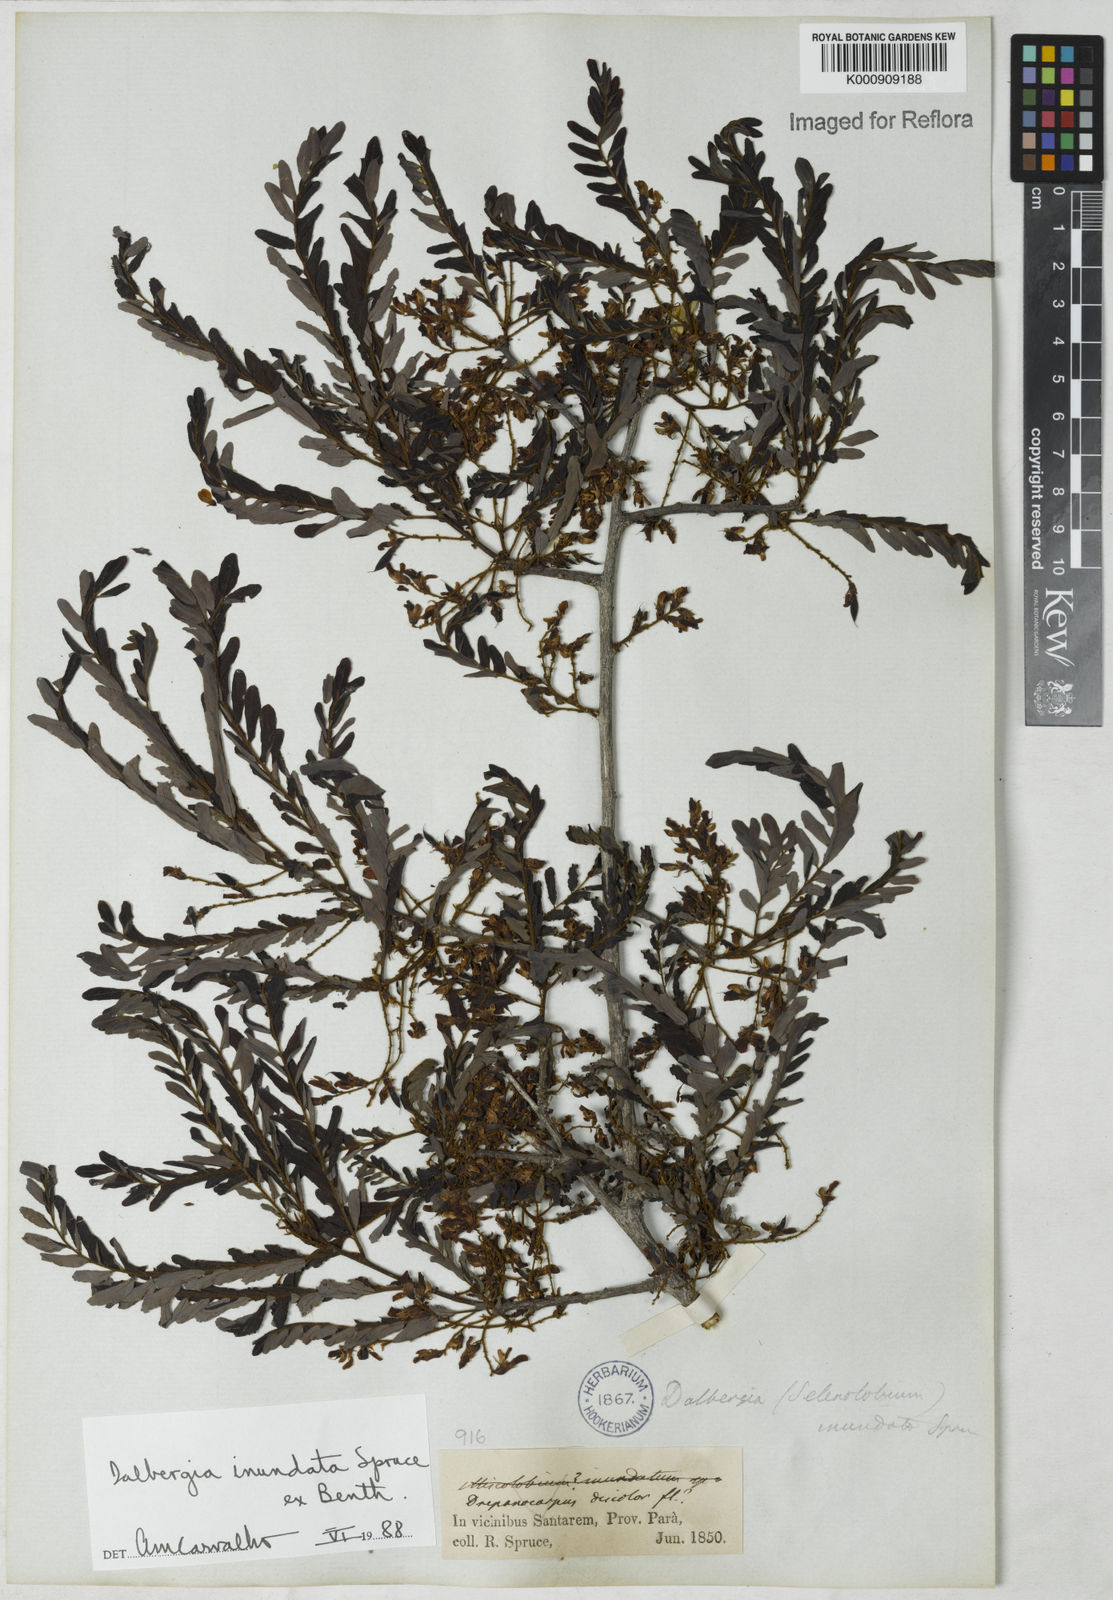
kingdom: Plantae
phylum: Tracheophyta
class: Magnoliopsida
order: Fabales
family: Fabaceae
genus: Dalbergia
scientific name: Dalbergia inundata
